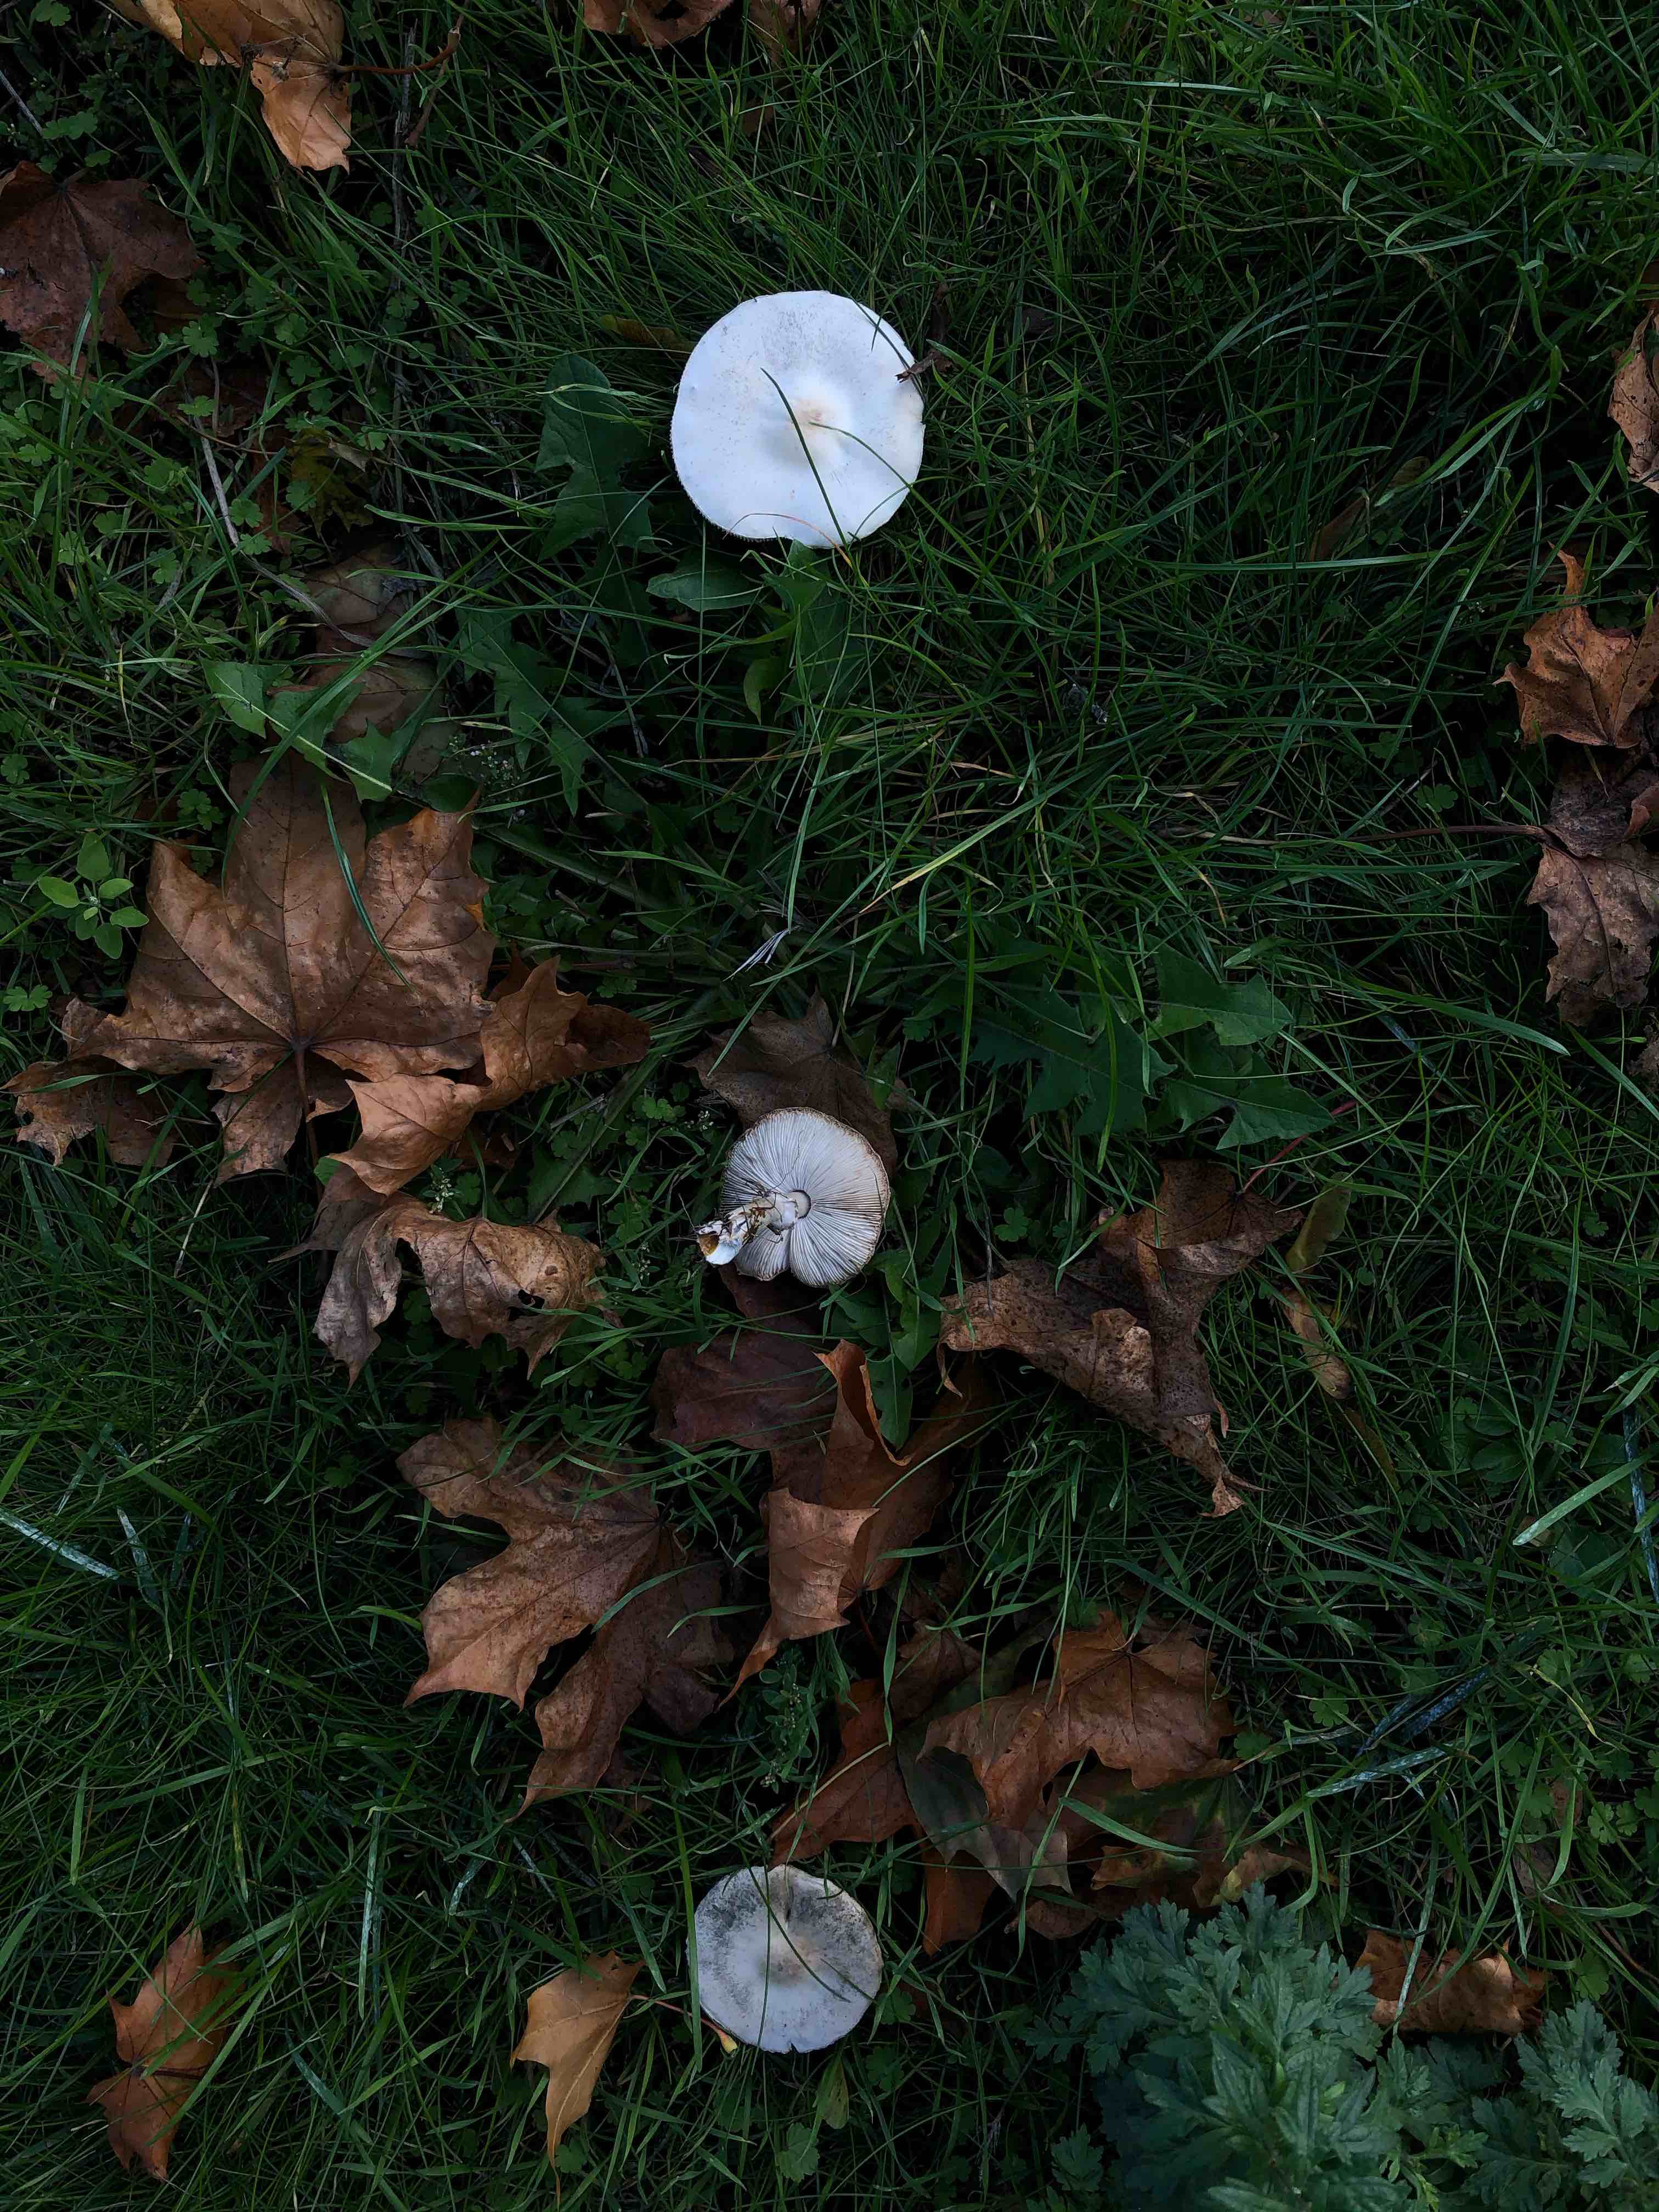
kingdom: Fungi
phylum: Basidiomycota
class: Agaricomycetes
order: Agaricales
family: Agaricaceae
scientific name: Agaricaceae
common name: champignonfamilien
